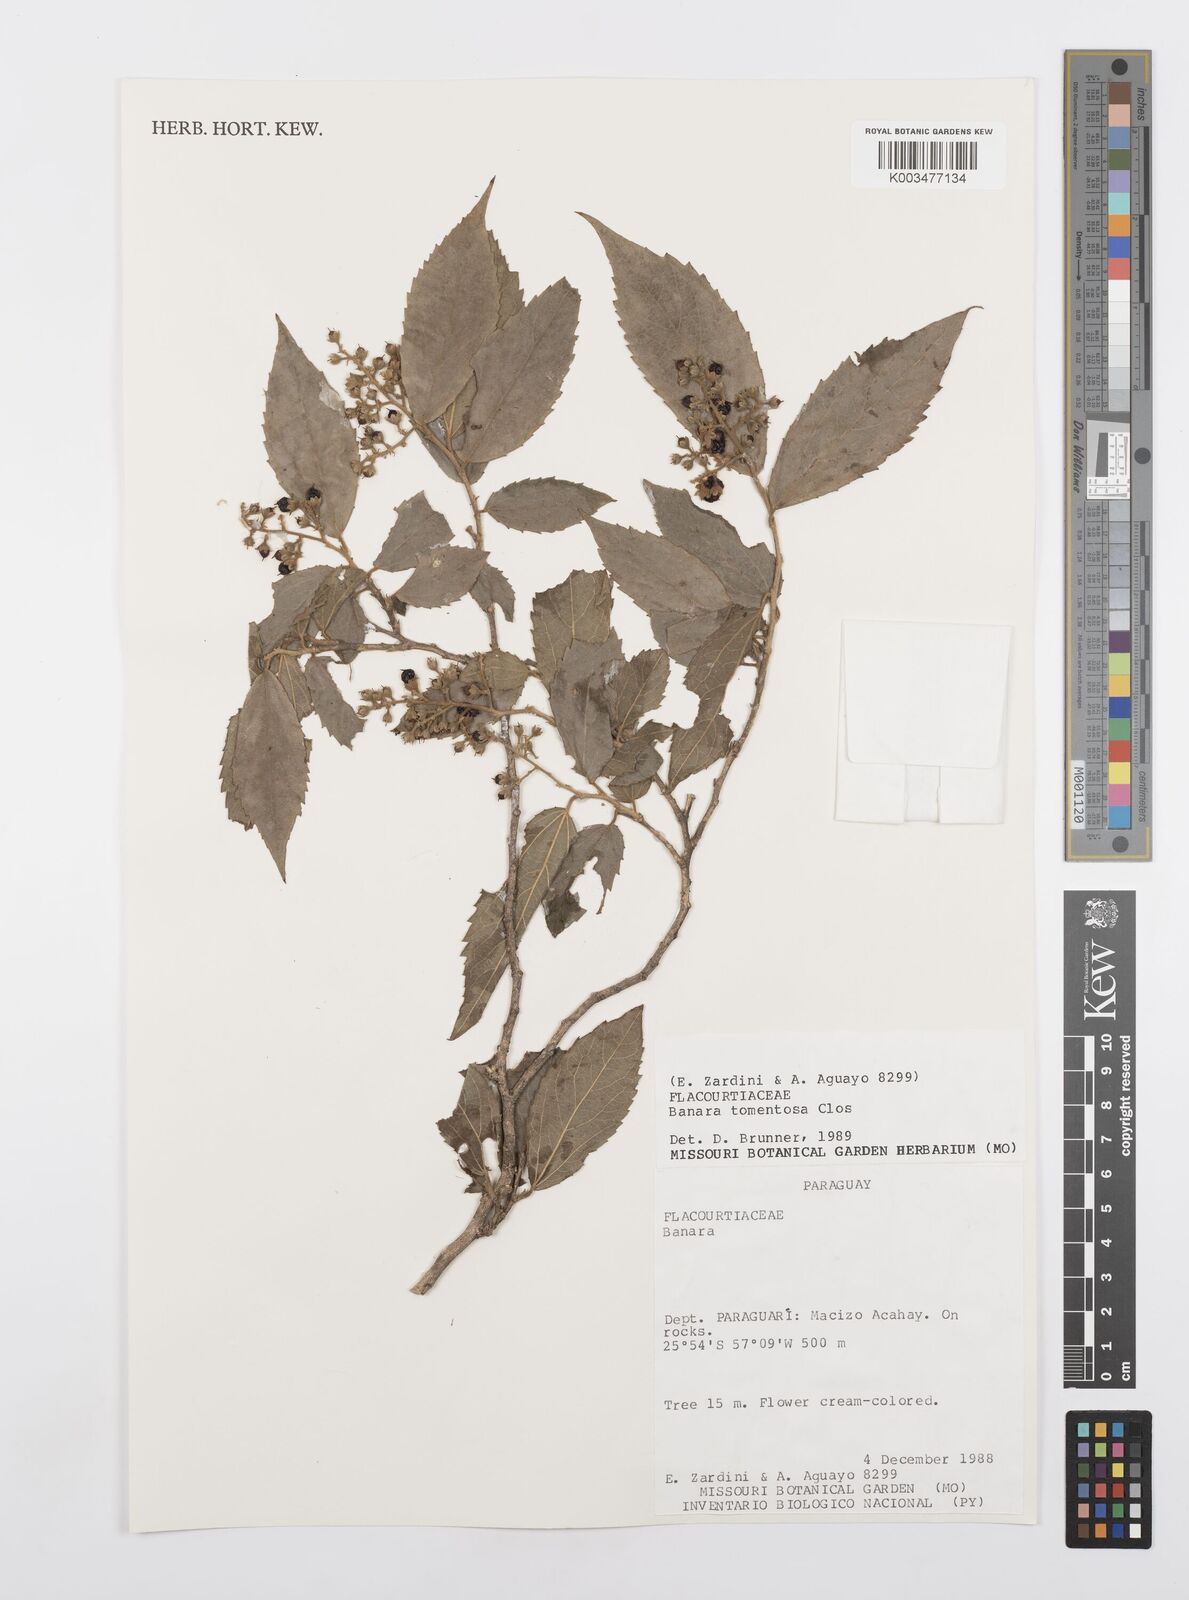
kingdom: Plantae
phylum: Tracheophyta
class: Magnoliopsida
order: Malpighiales
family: Salicaceae
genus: Banara
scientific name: Banara tomentosa
